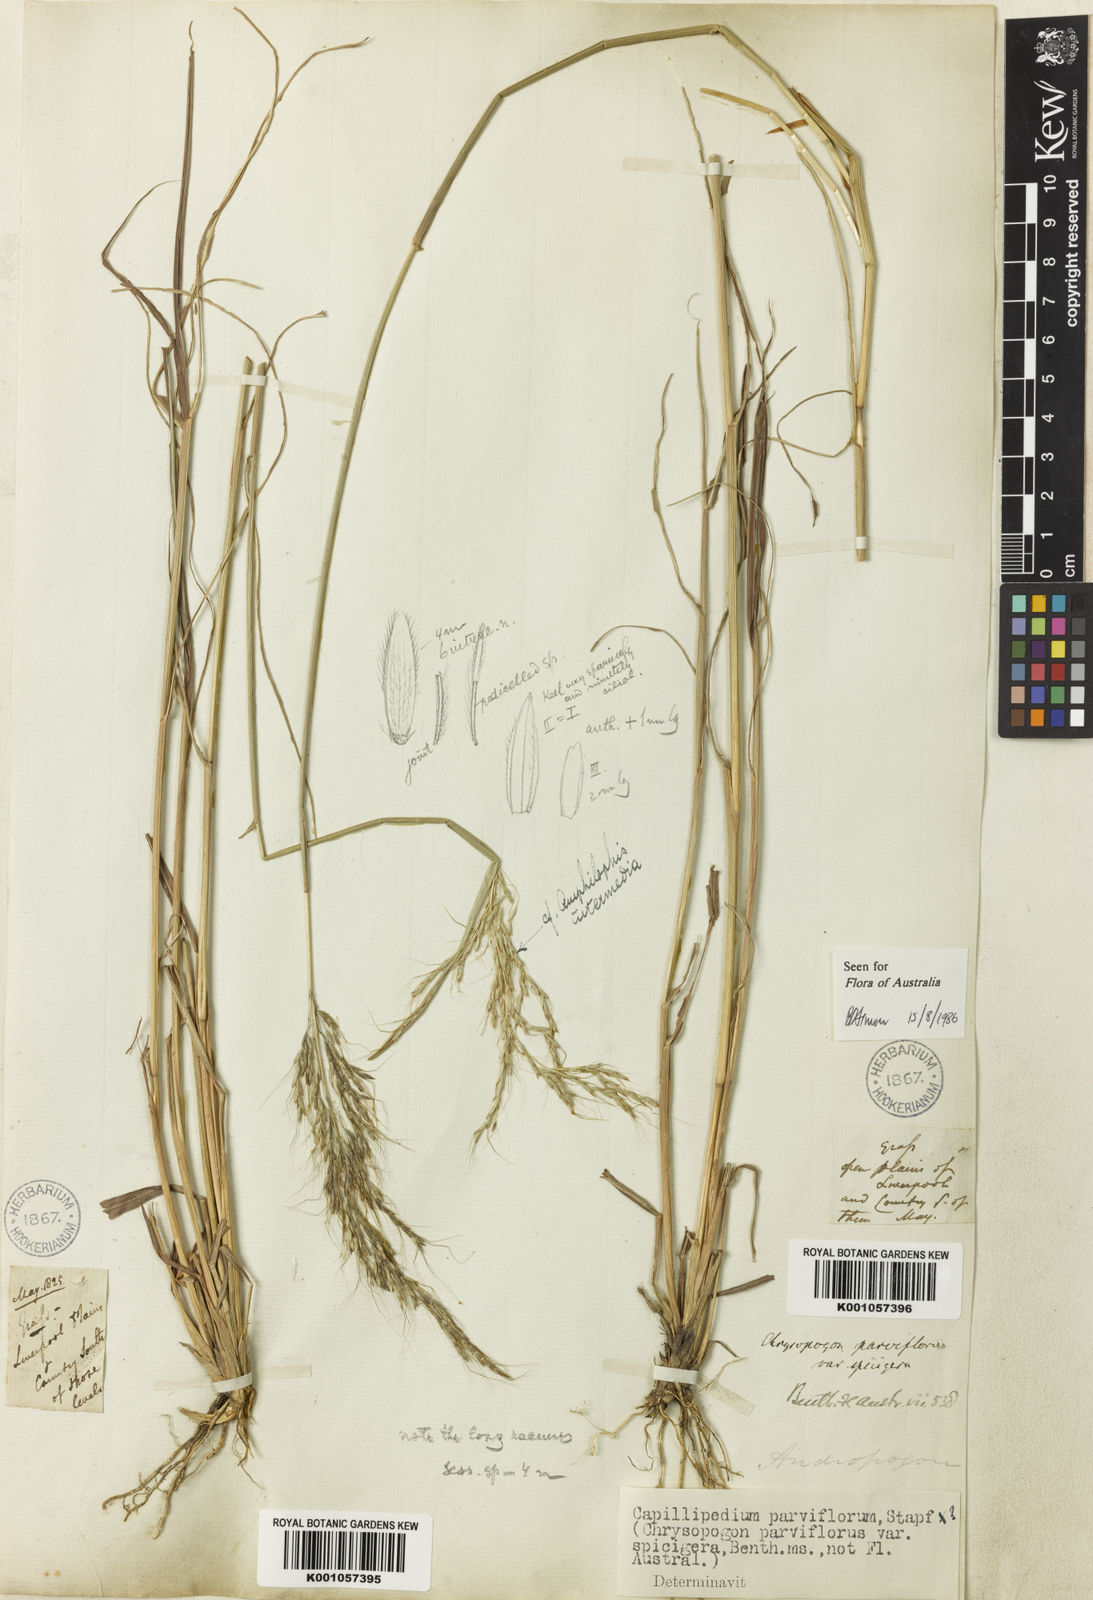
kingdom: Plantae
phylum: Tracheophyta
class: Liliopsida
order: Poales
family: Poaceae
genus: Capillipedium
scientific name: Capillipedium spicigerum
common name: Scented-top grass
